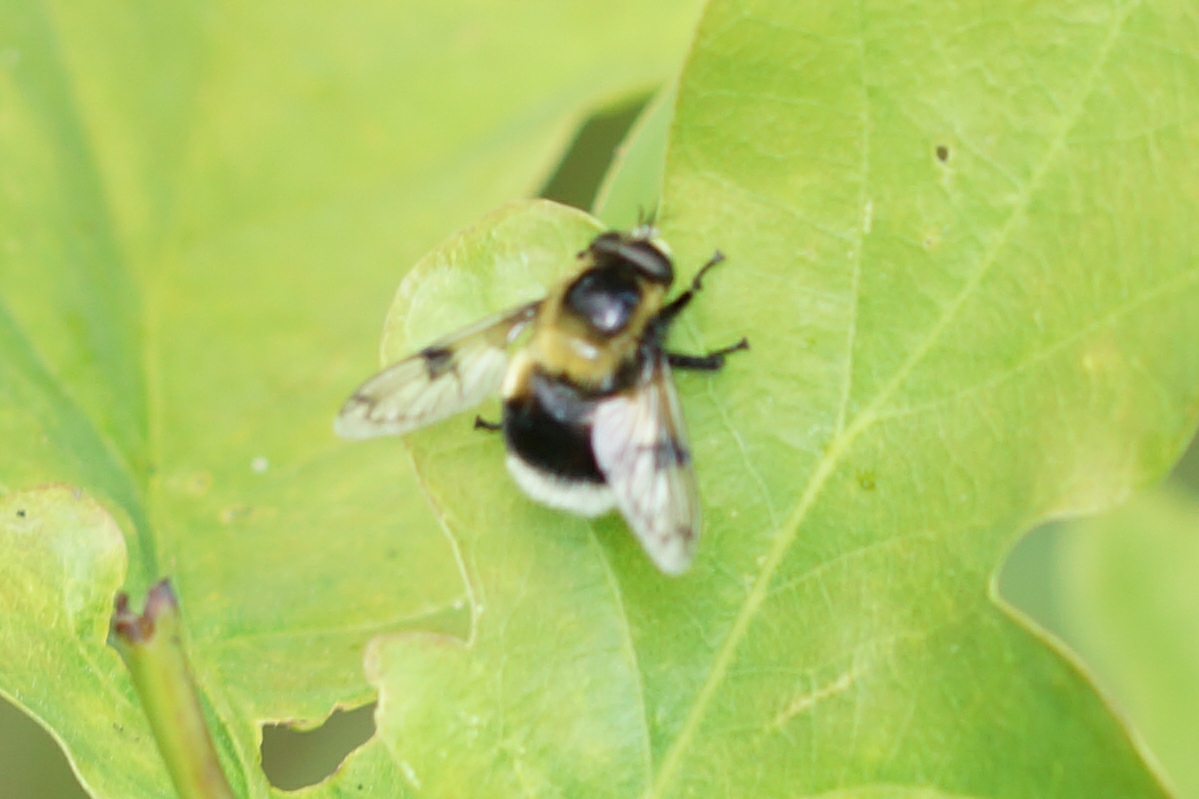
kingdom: Animalia
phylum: Arthropoda
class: Insecta
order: Diptera
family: Syrphidae
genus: Volucella
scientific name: Volucella bombylans
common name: Foranderlig humlesvirreflue
